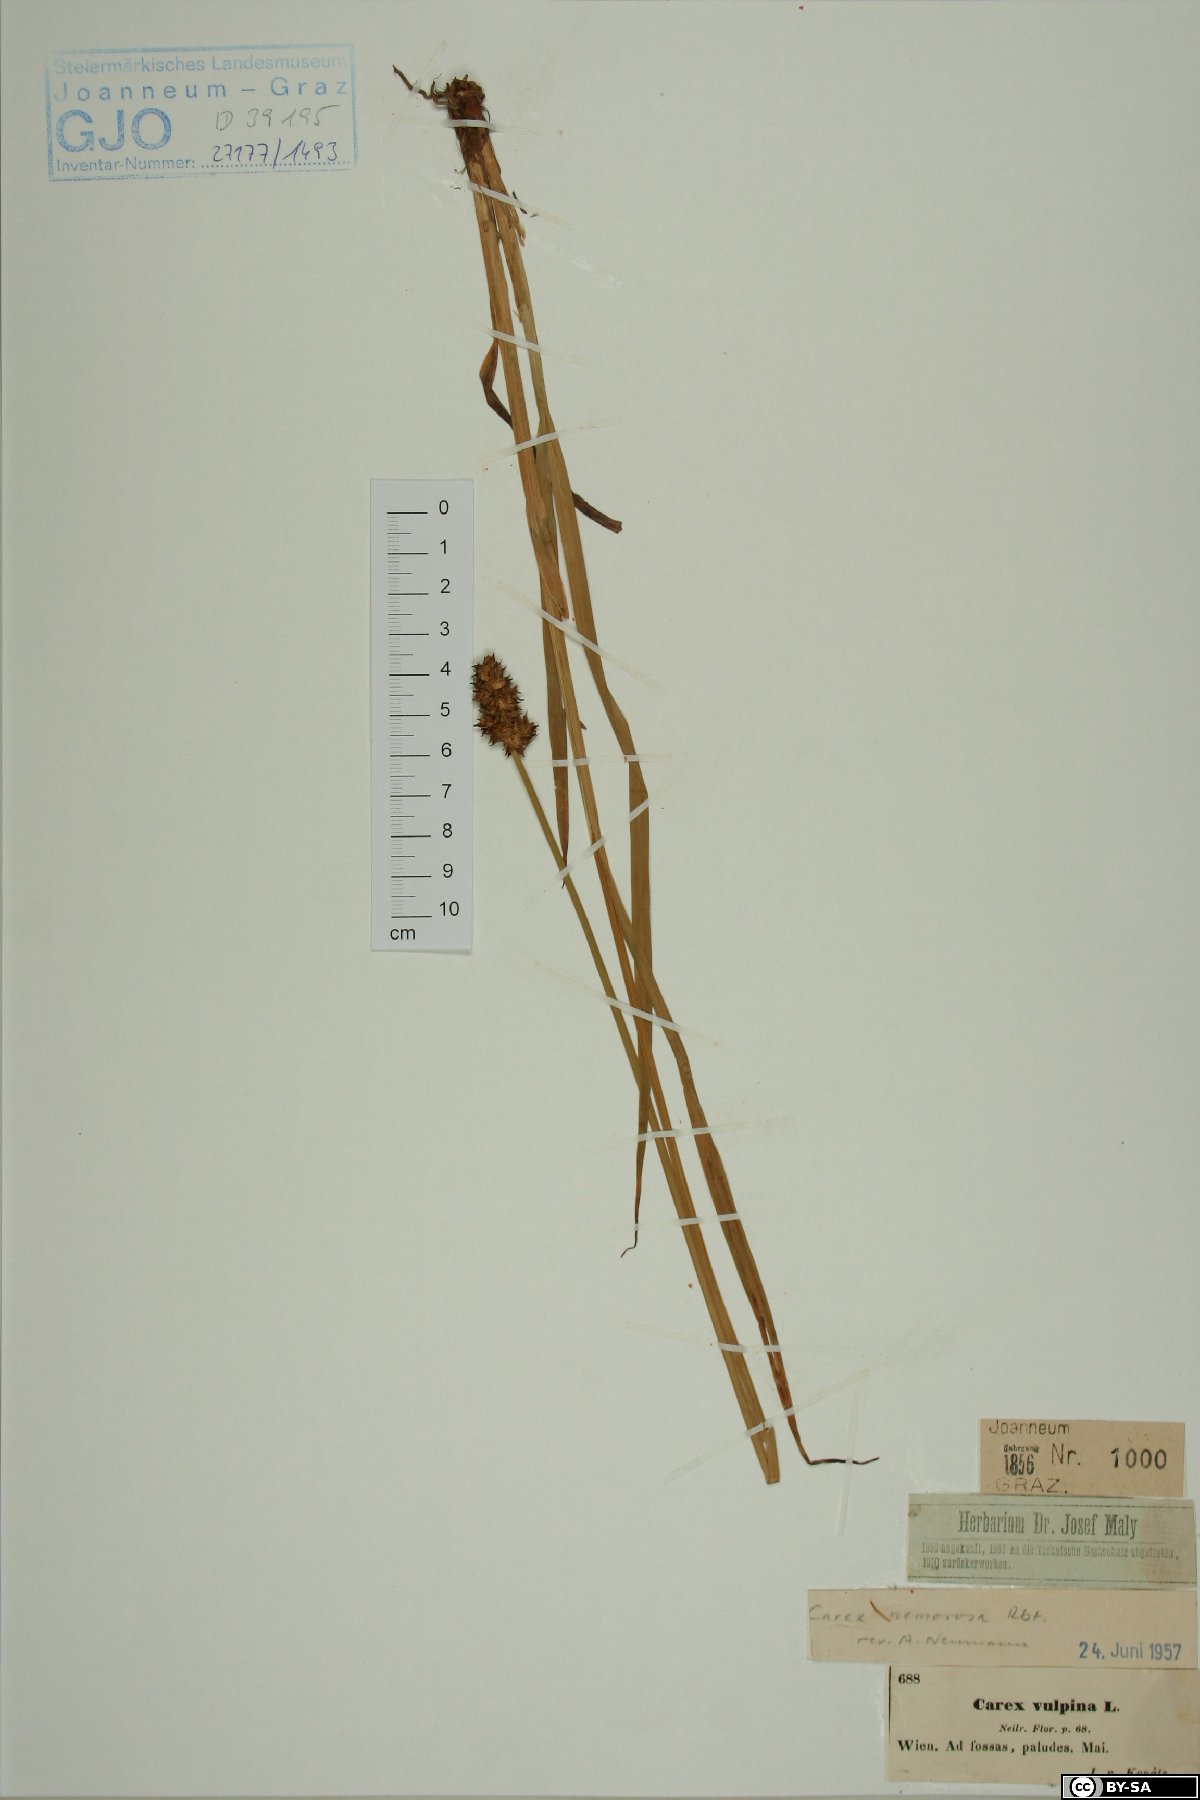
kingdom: Plantae
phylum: Tracheophyta
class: Liliopsida
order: Poales
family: Cyperaceae
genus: Carex
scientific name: Carex otrubae
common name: False fox-sedge
